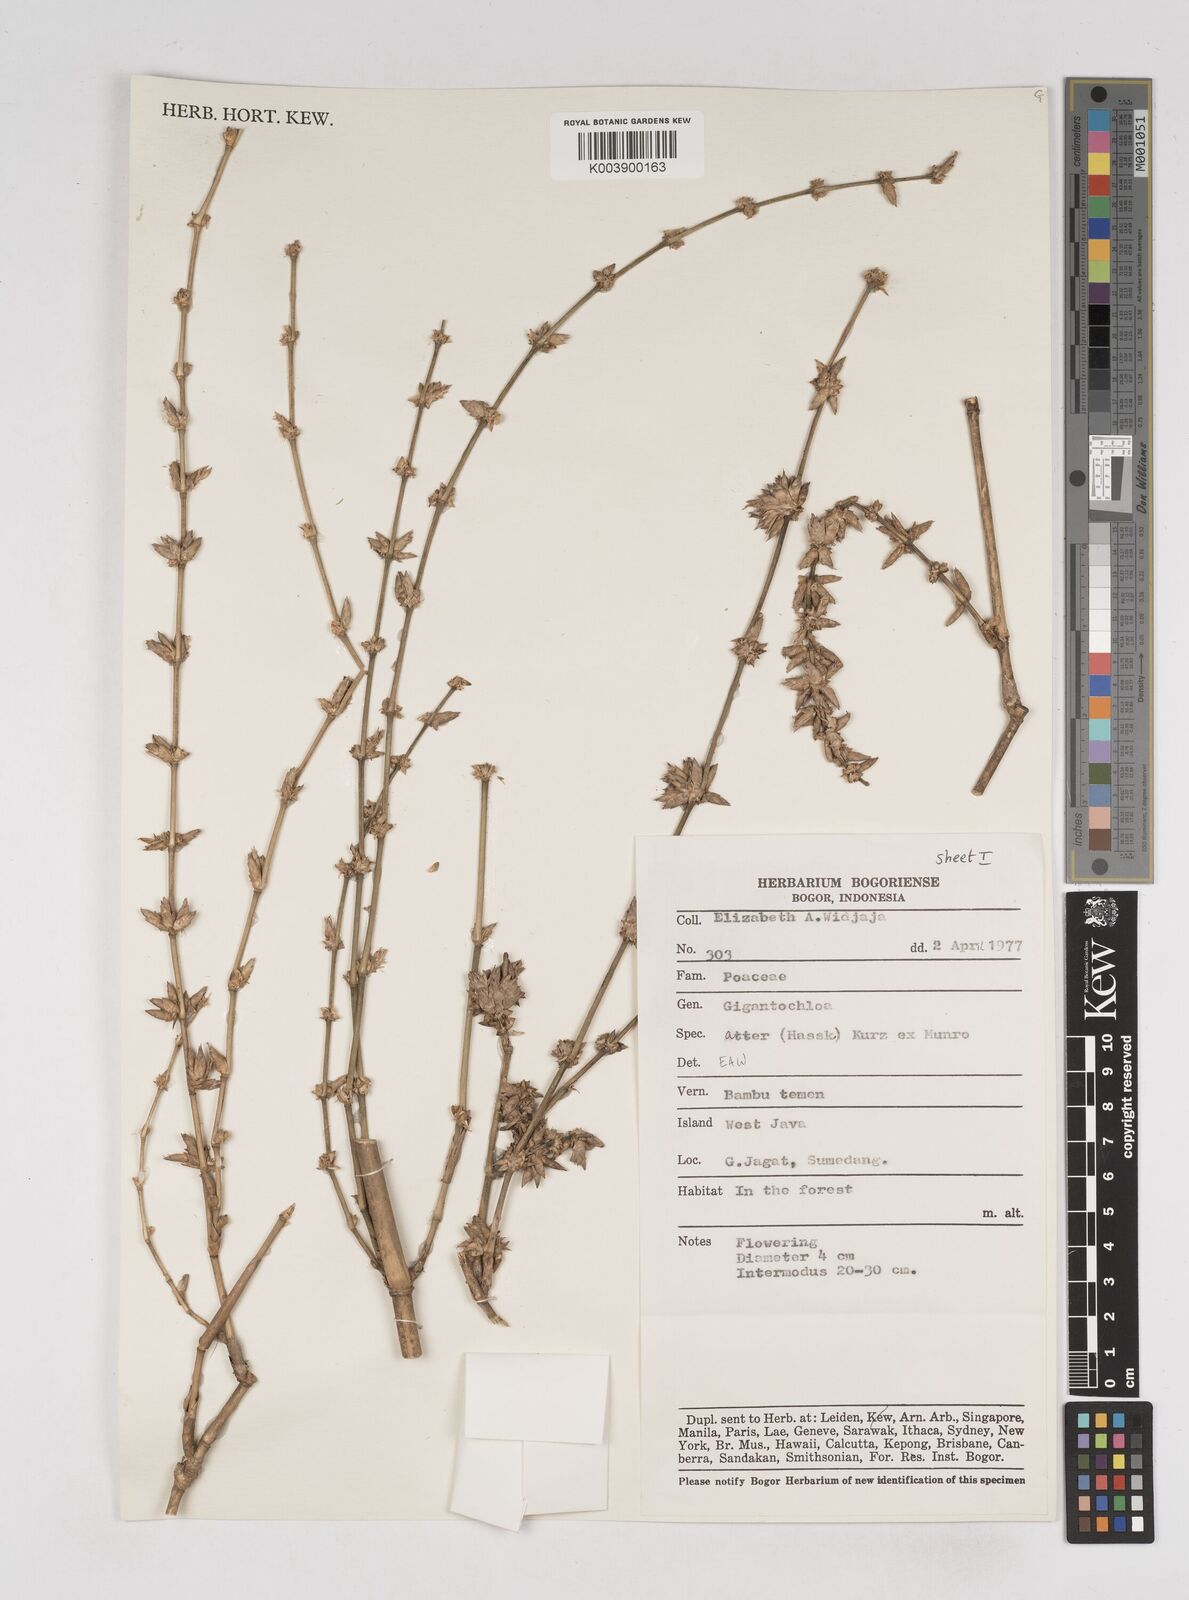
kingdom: Plantae
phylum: Tracheophyta
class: Liliopsida
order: Poales
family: Poaceae
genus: Gigantochloa
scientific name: Gigantochloa atter
